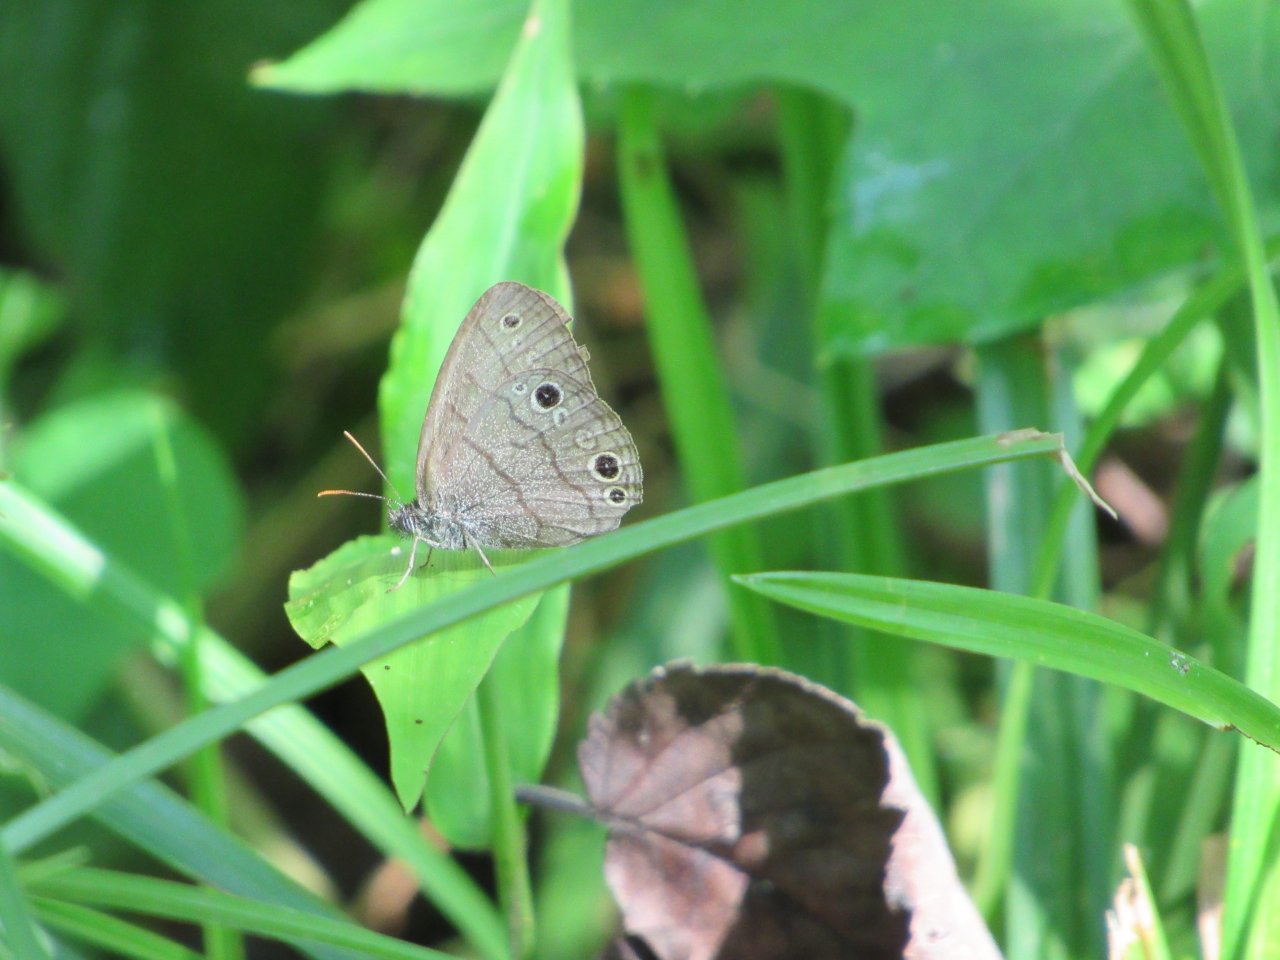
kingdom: Animalia
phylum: Arthropoda
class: Insecta
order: Lepidoptera
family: Nymphalidae
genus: Hermeuptychia
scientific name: Hermeuptychia hermes
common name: Carolina Satyr
